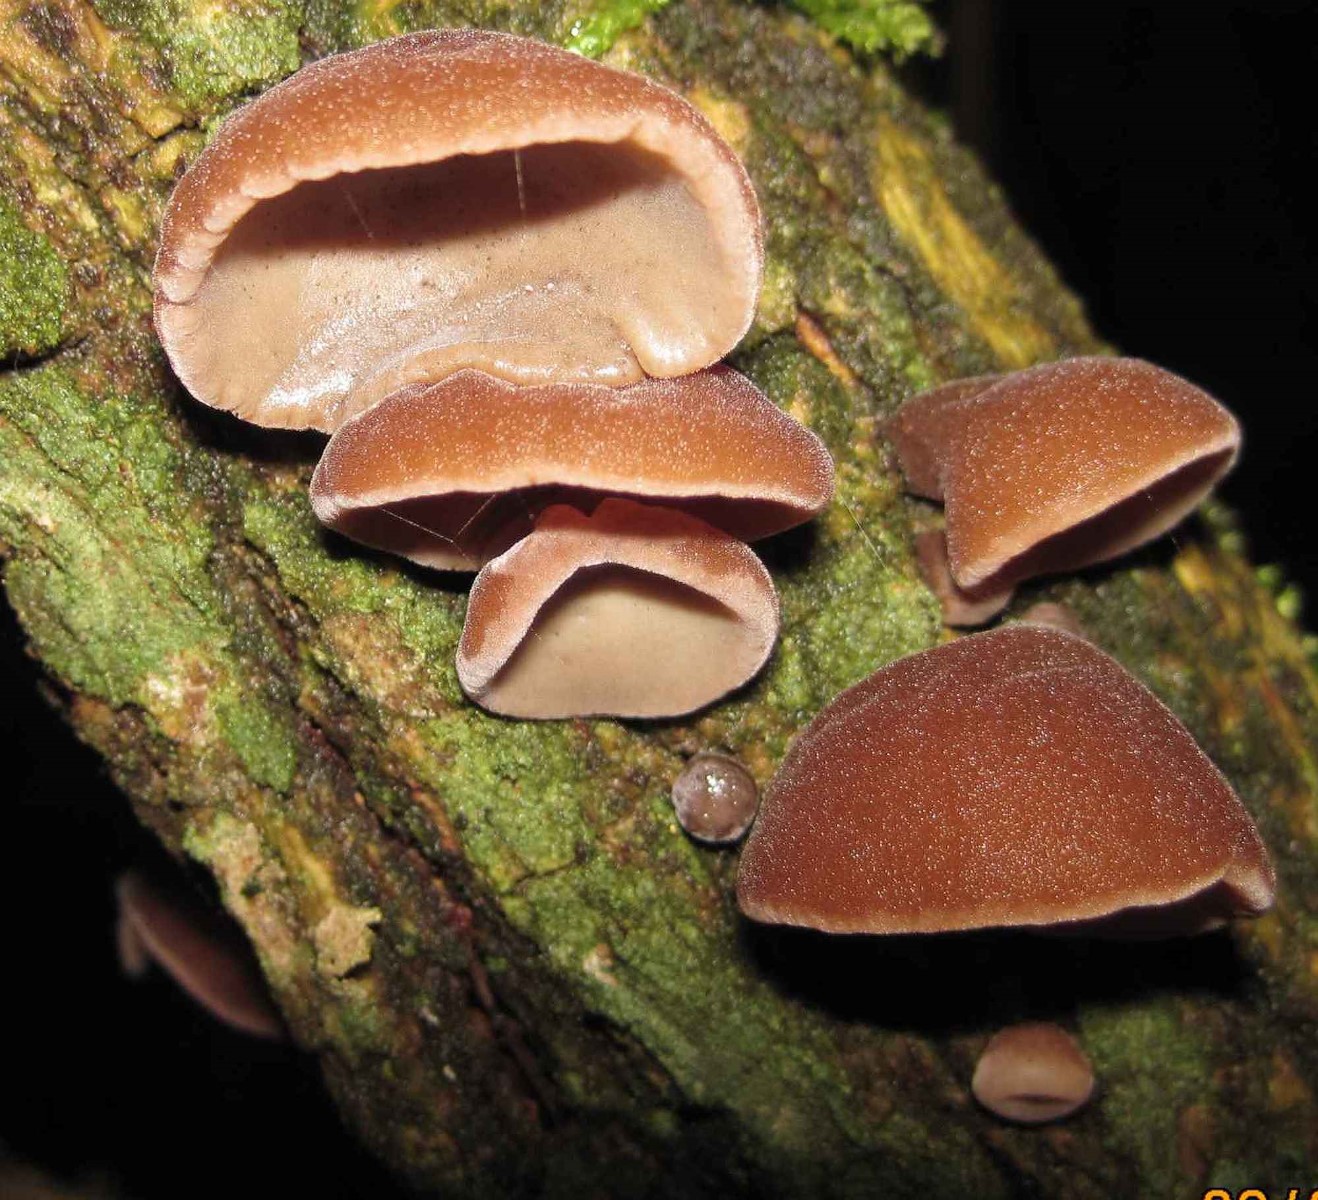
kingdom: Fungi
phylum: Basidiomycota
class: Agaricomycetes
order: Auriculariales
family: Auriculariaceae
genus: Auricularia
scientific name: Auricularia auricula-judae
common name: almindelig judasøre
